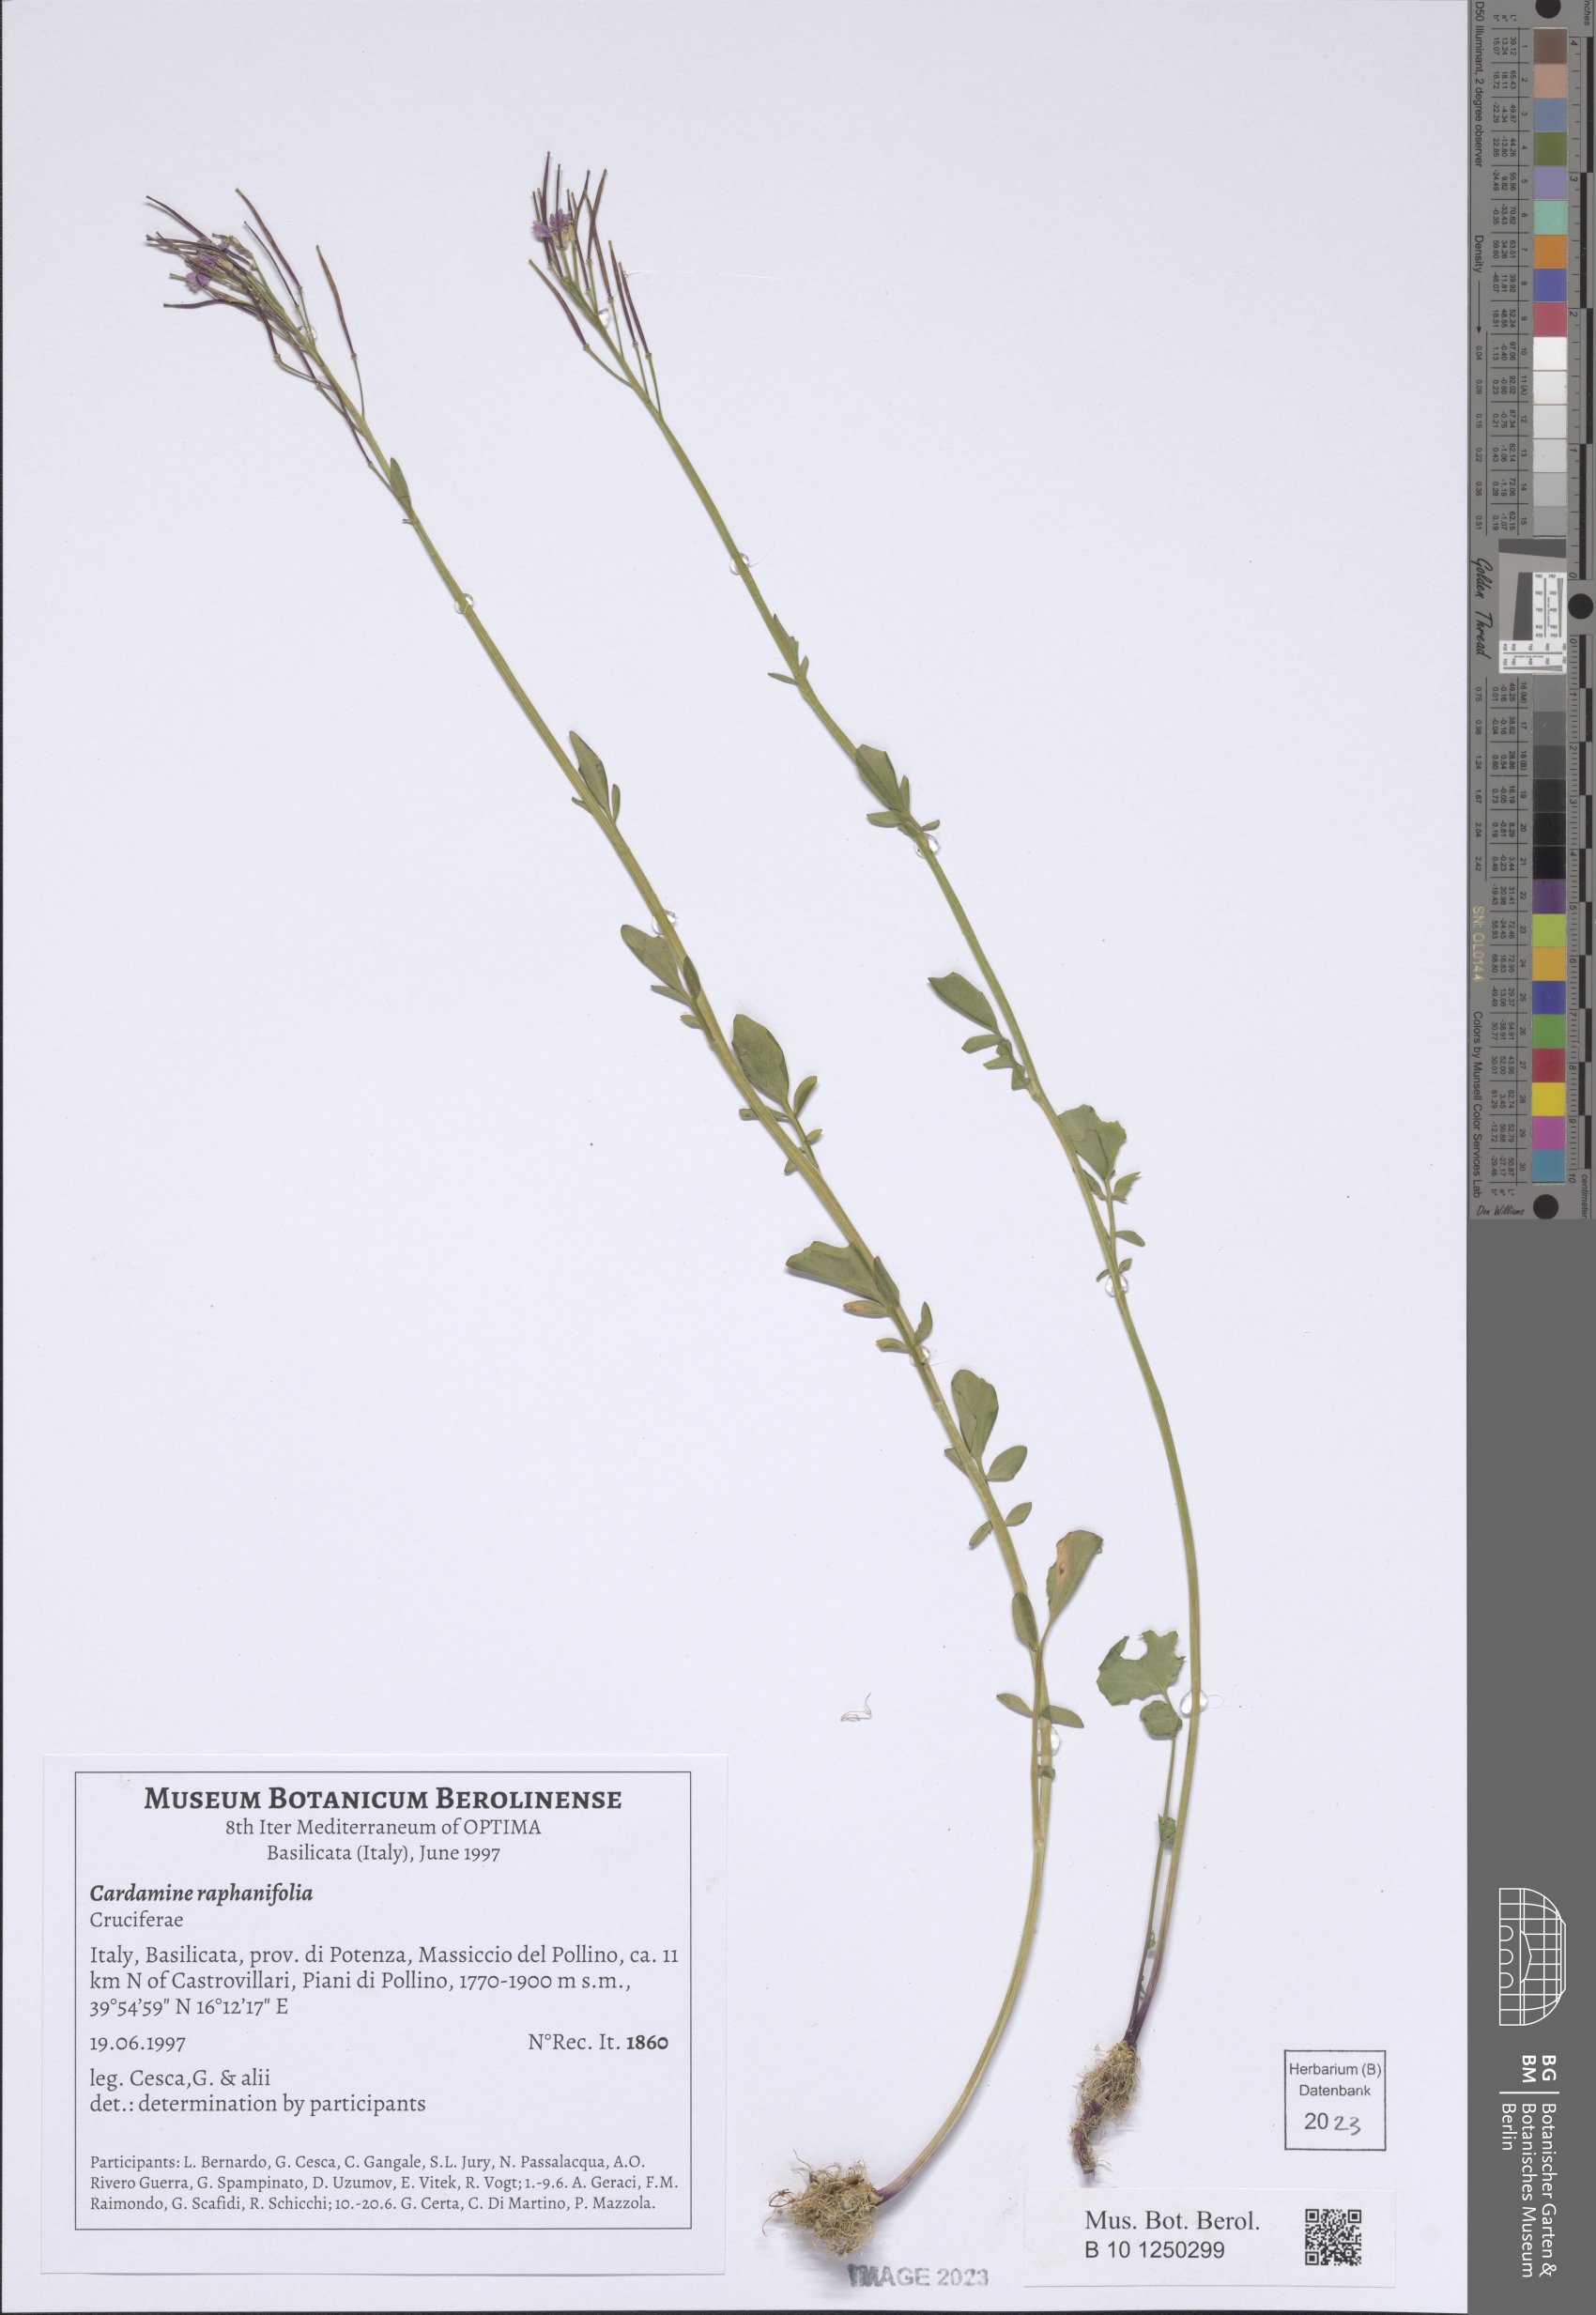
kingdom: Plantae
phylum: Tracheophyta
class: Magnoliopsida
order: Brassicales
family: Brassicaceae
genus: Cardamine
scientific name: Cardamine raphanifolia
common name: Greater cuckooflower
